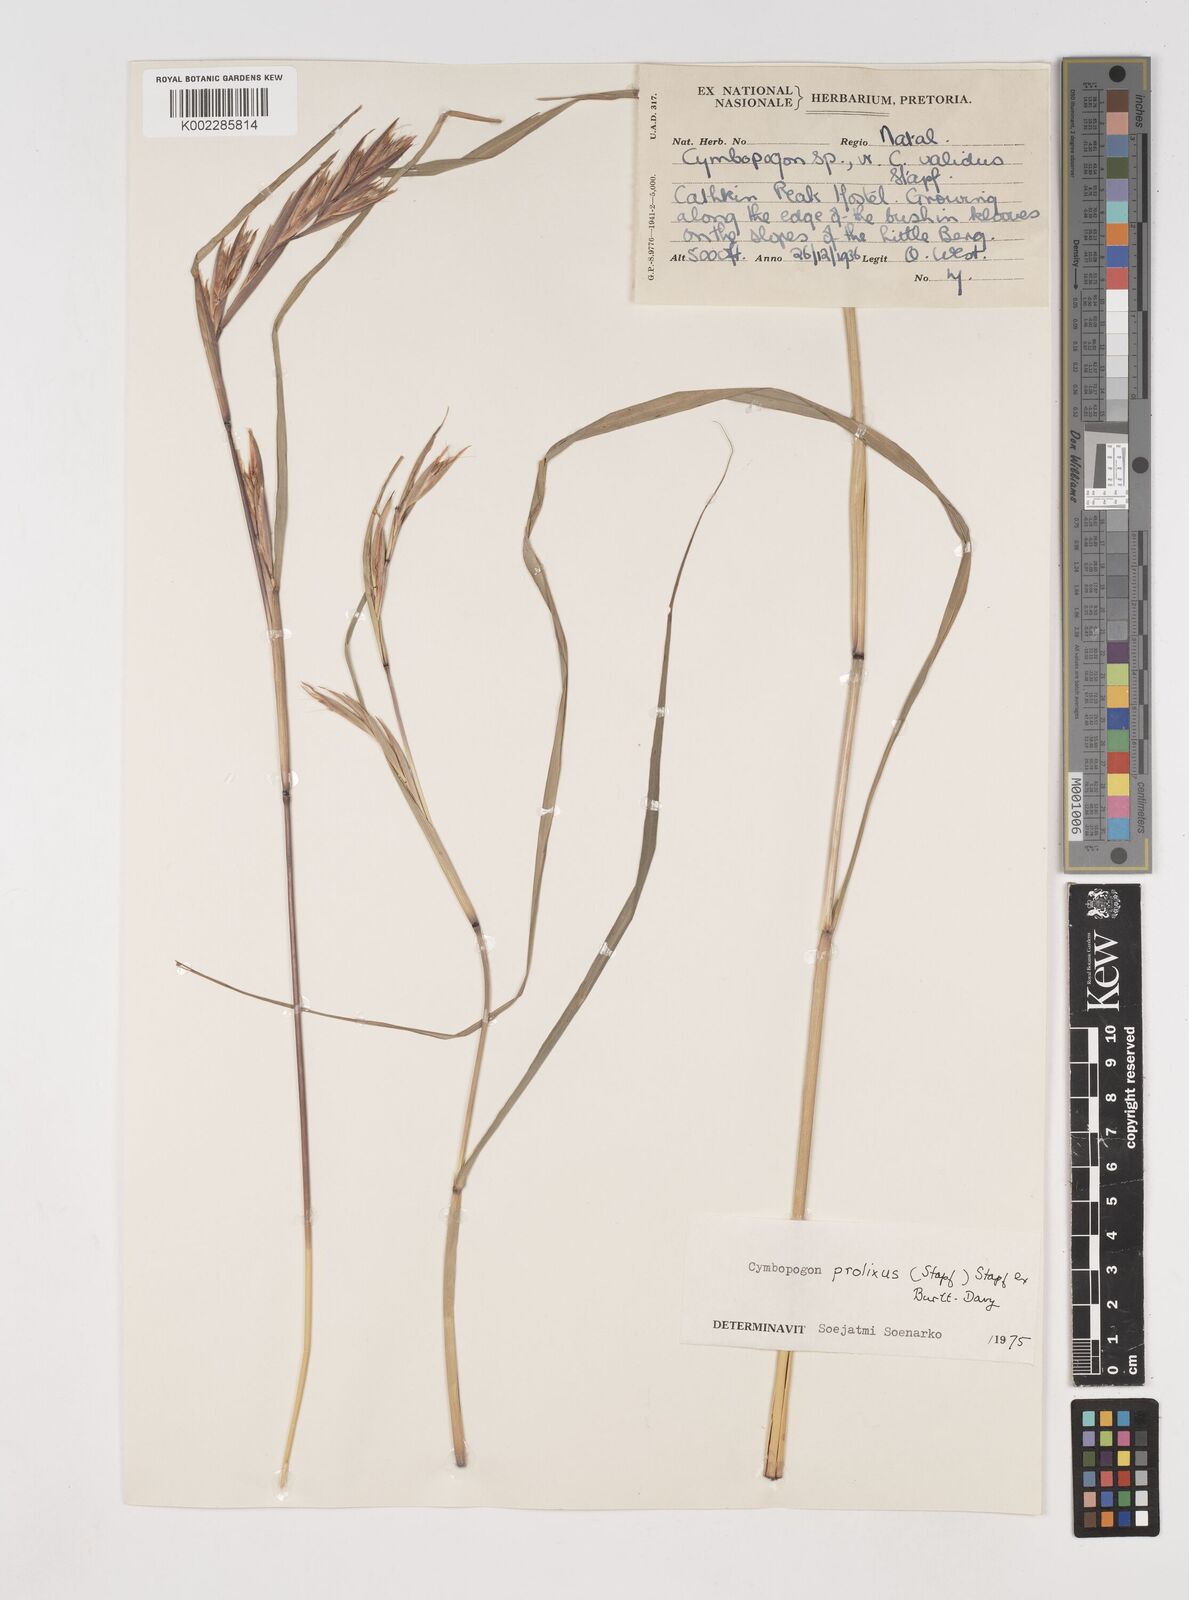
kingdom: Plantae
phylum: Tracheophyta
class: Liliopsida
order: Poales
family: Poaceae
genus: Cymbopogon
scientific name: Cymbopogon nardus
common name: Giant turpentine grass
